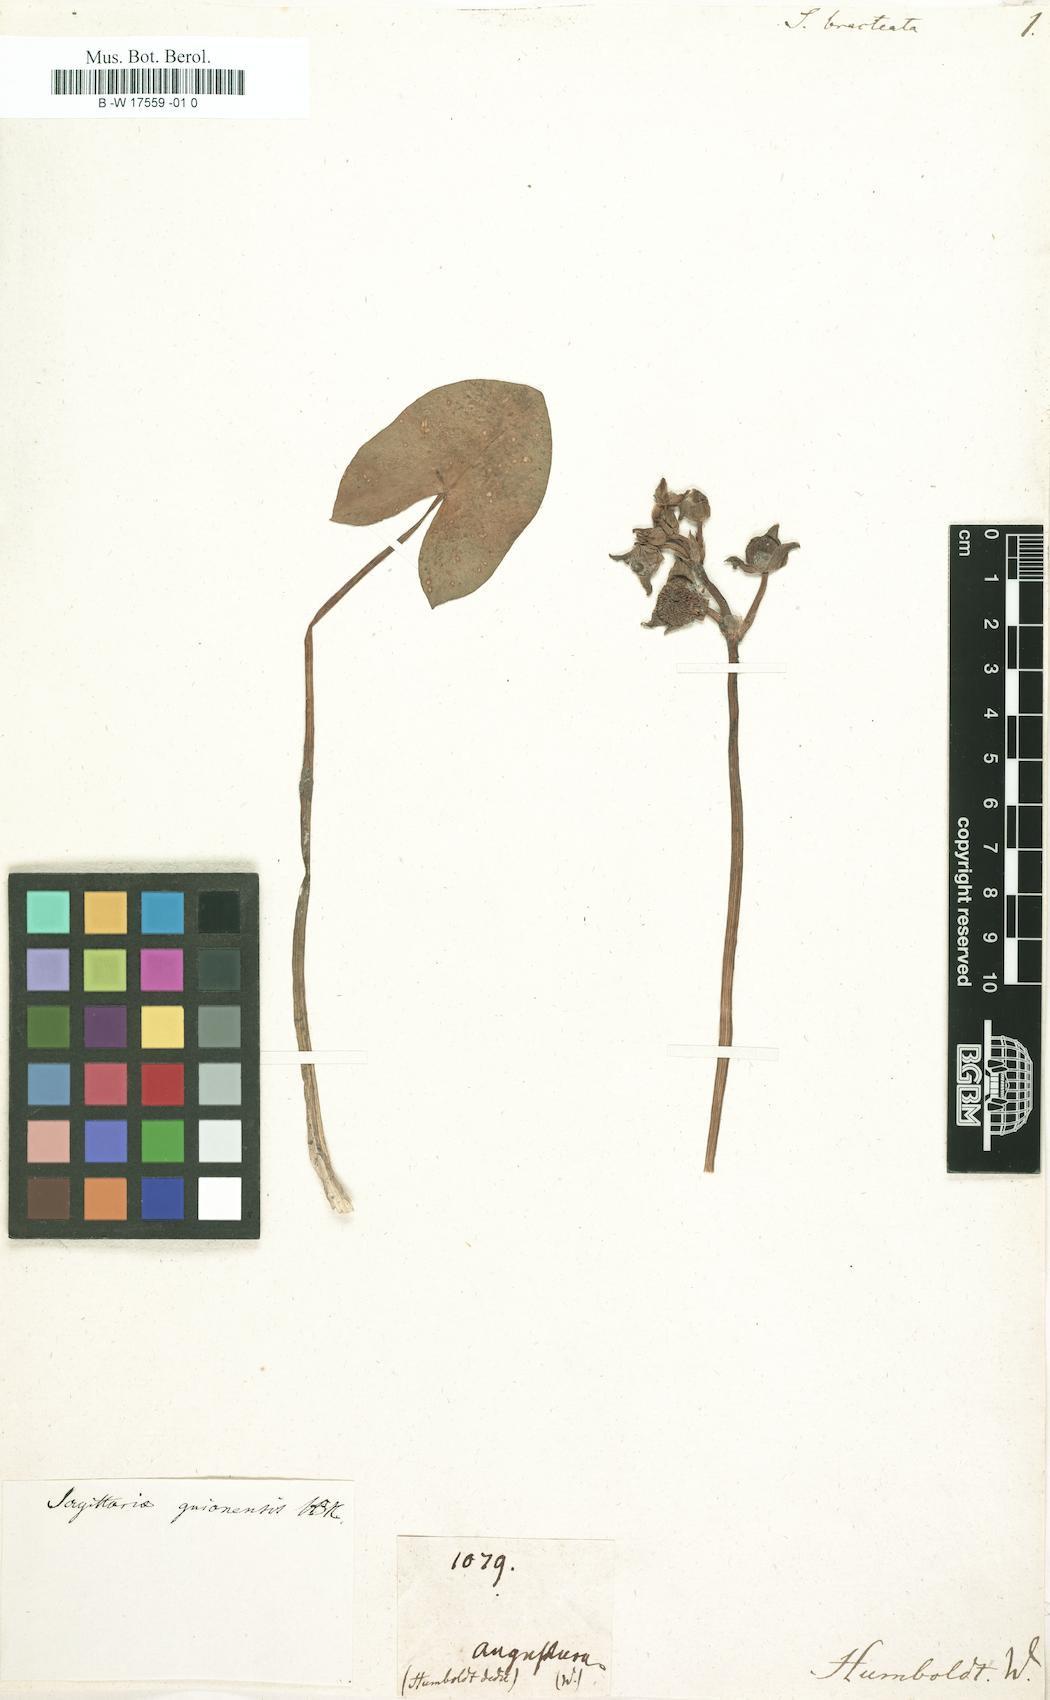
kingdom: Plantae
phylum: Tracheophyta
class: Liliopsida
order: Alismatales
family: Alismataceae
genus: Sagittaria
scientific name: Sagittaria guayanensis
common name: Guyanese arrowhead
